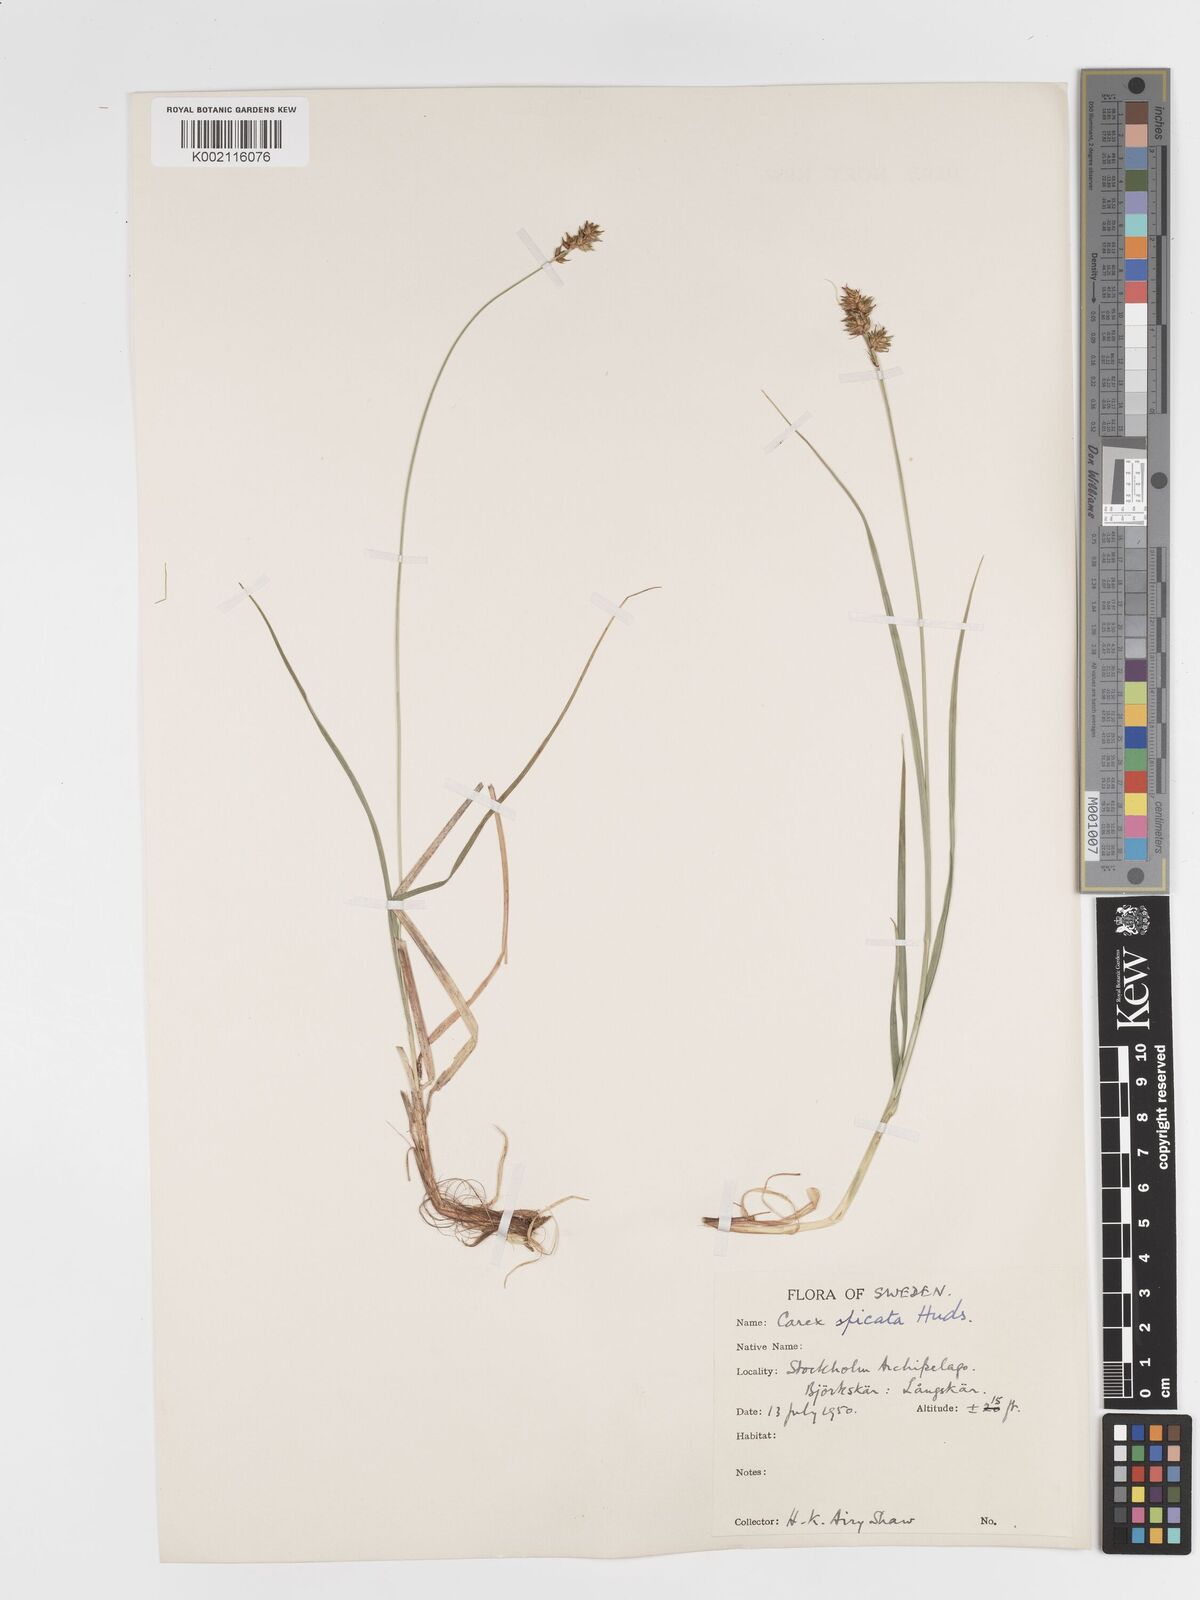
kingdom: Plantae
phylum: Tracheophyta
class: Liliopsida
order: Poales
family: Cyperaceae
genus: Carex
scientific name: Carex spicata
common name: Spiked sedge
